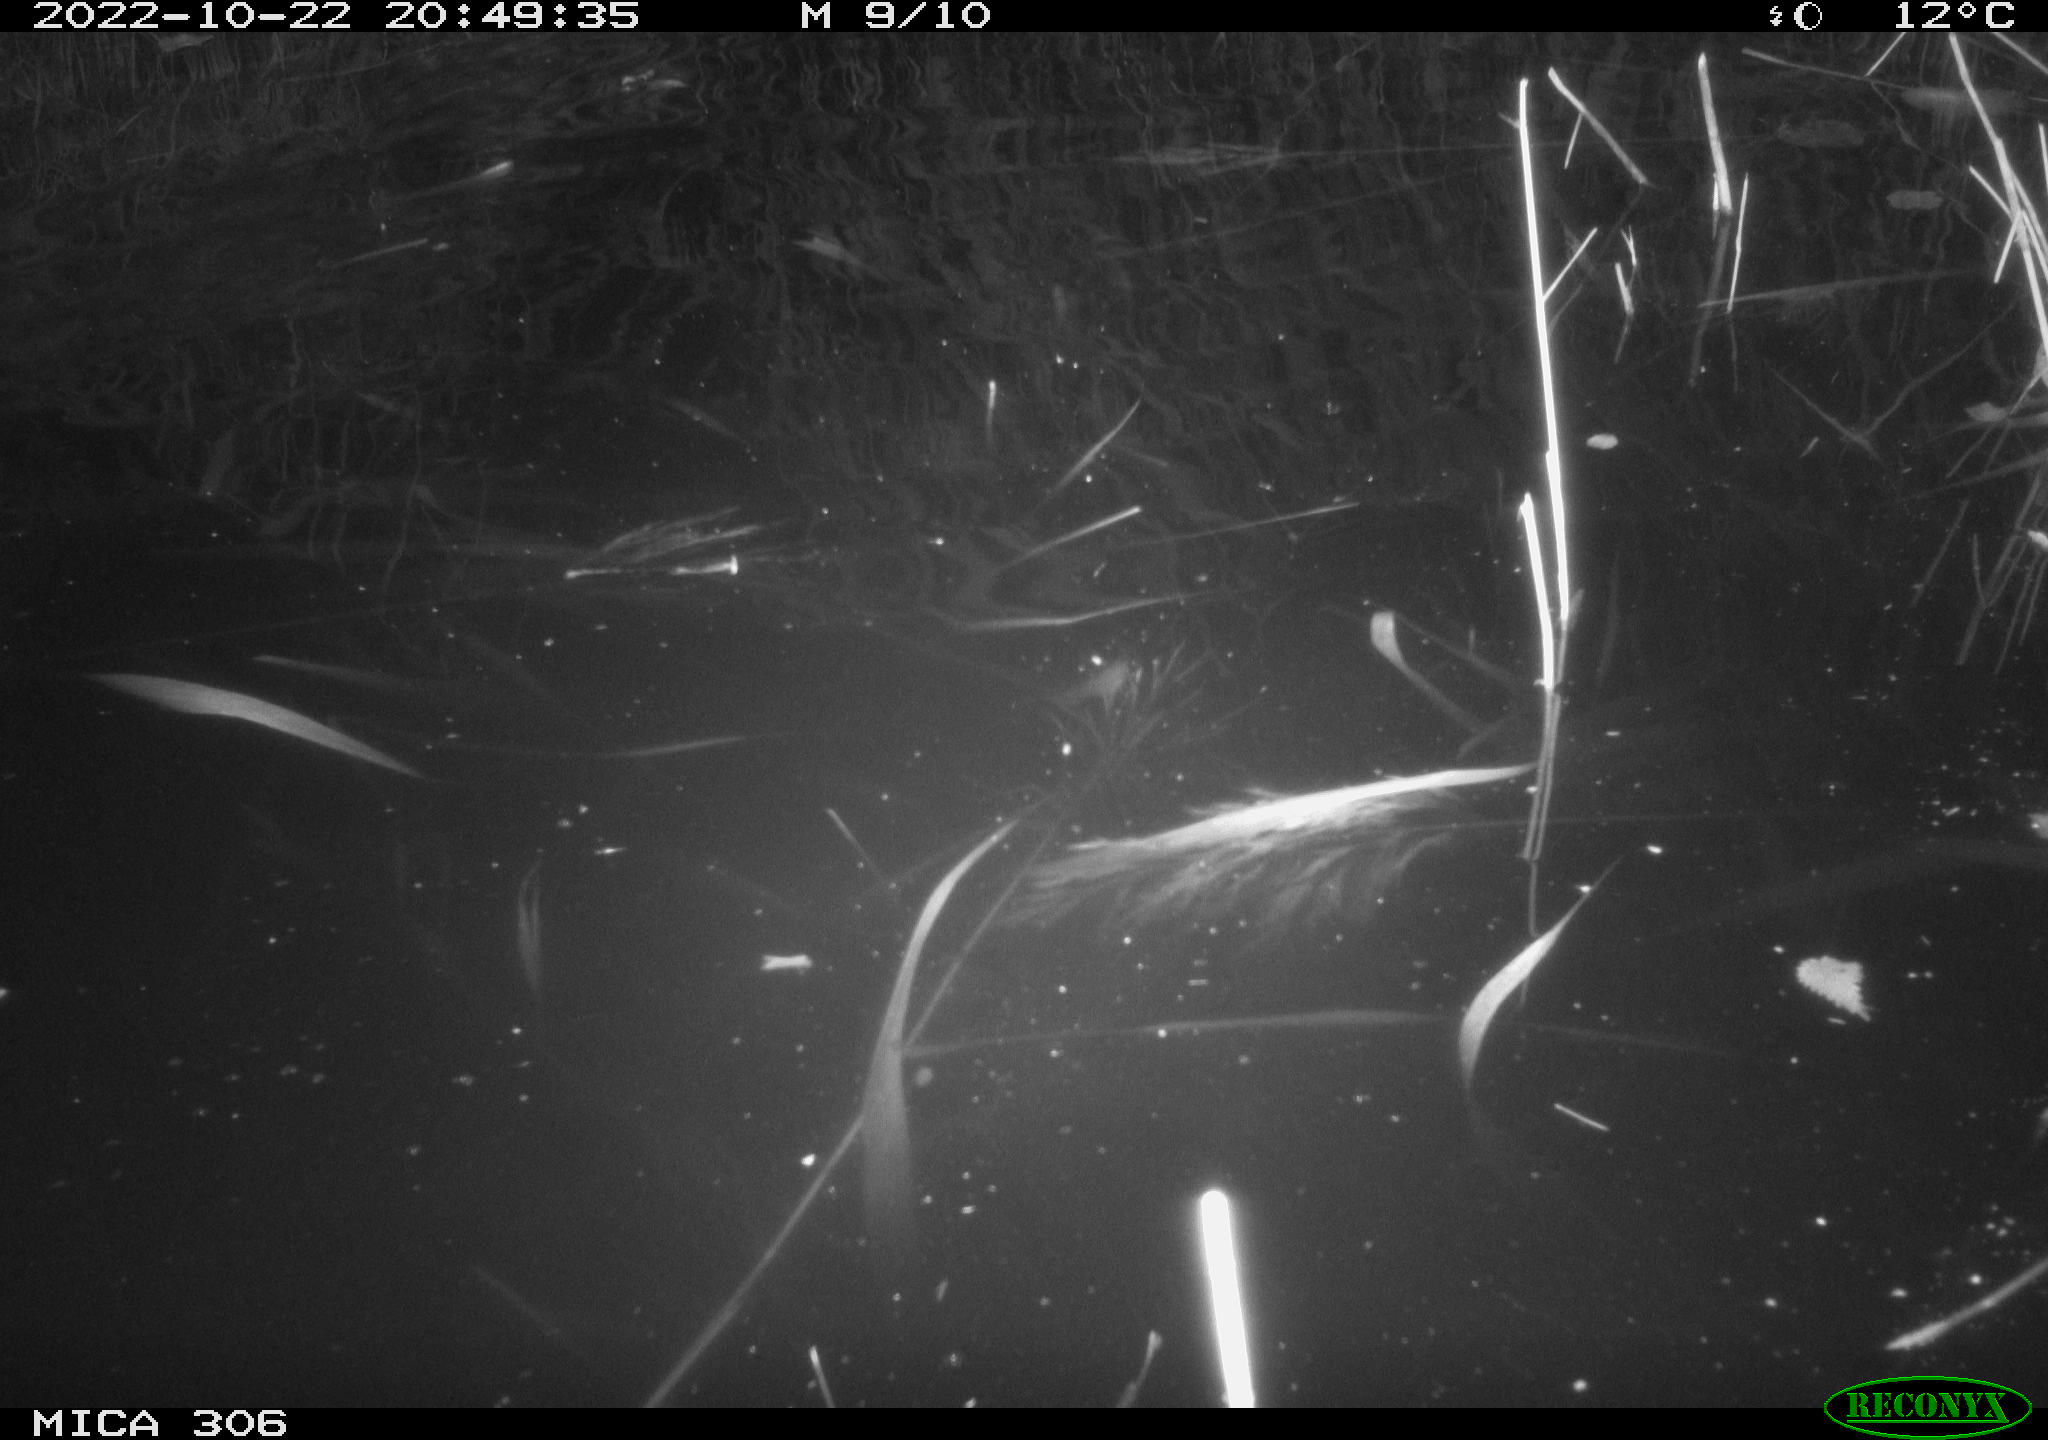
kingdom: Animalia
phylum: Chordata
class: Mammalia
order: Rodentia
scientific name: Rodentia
